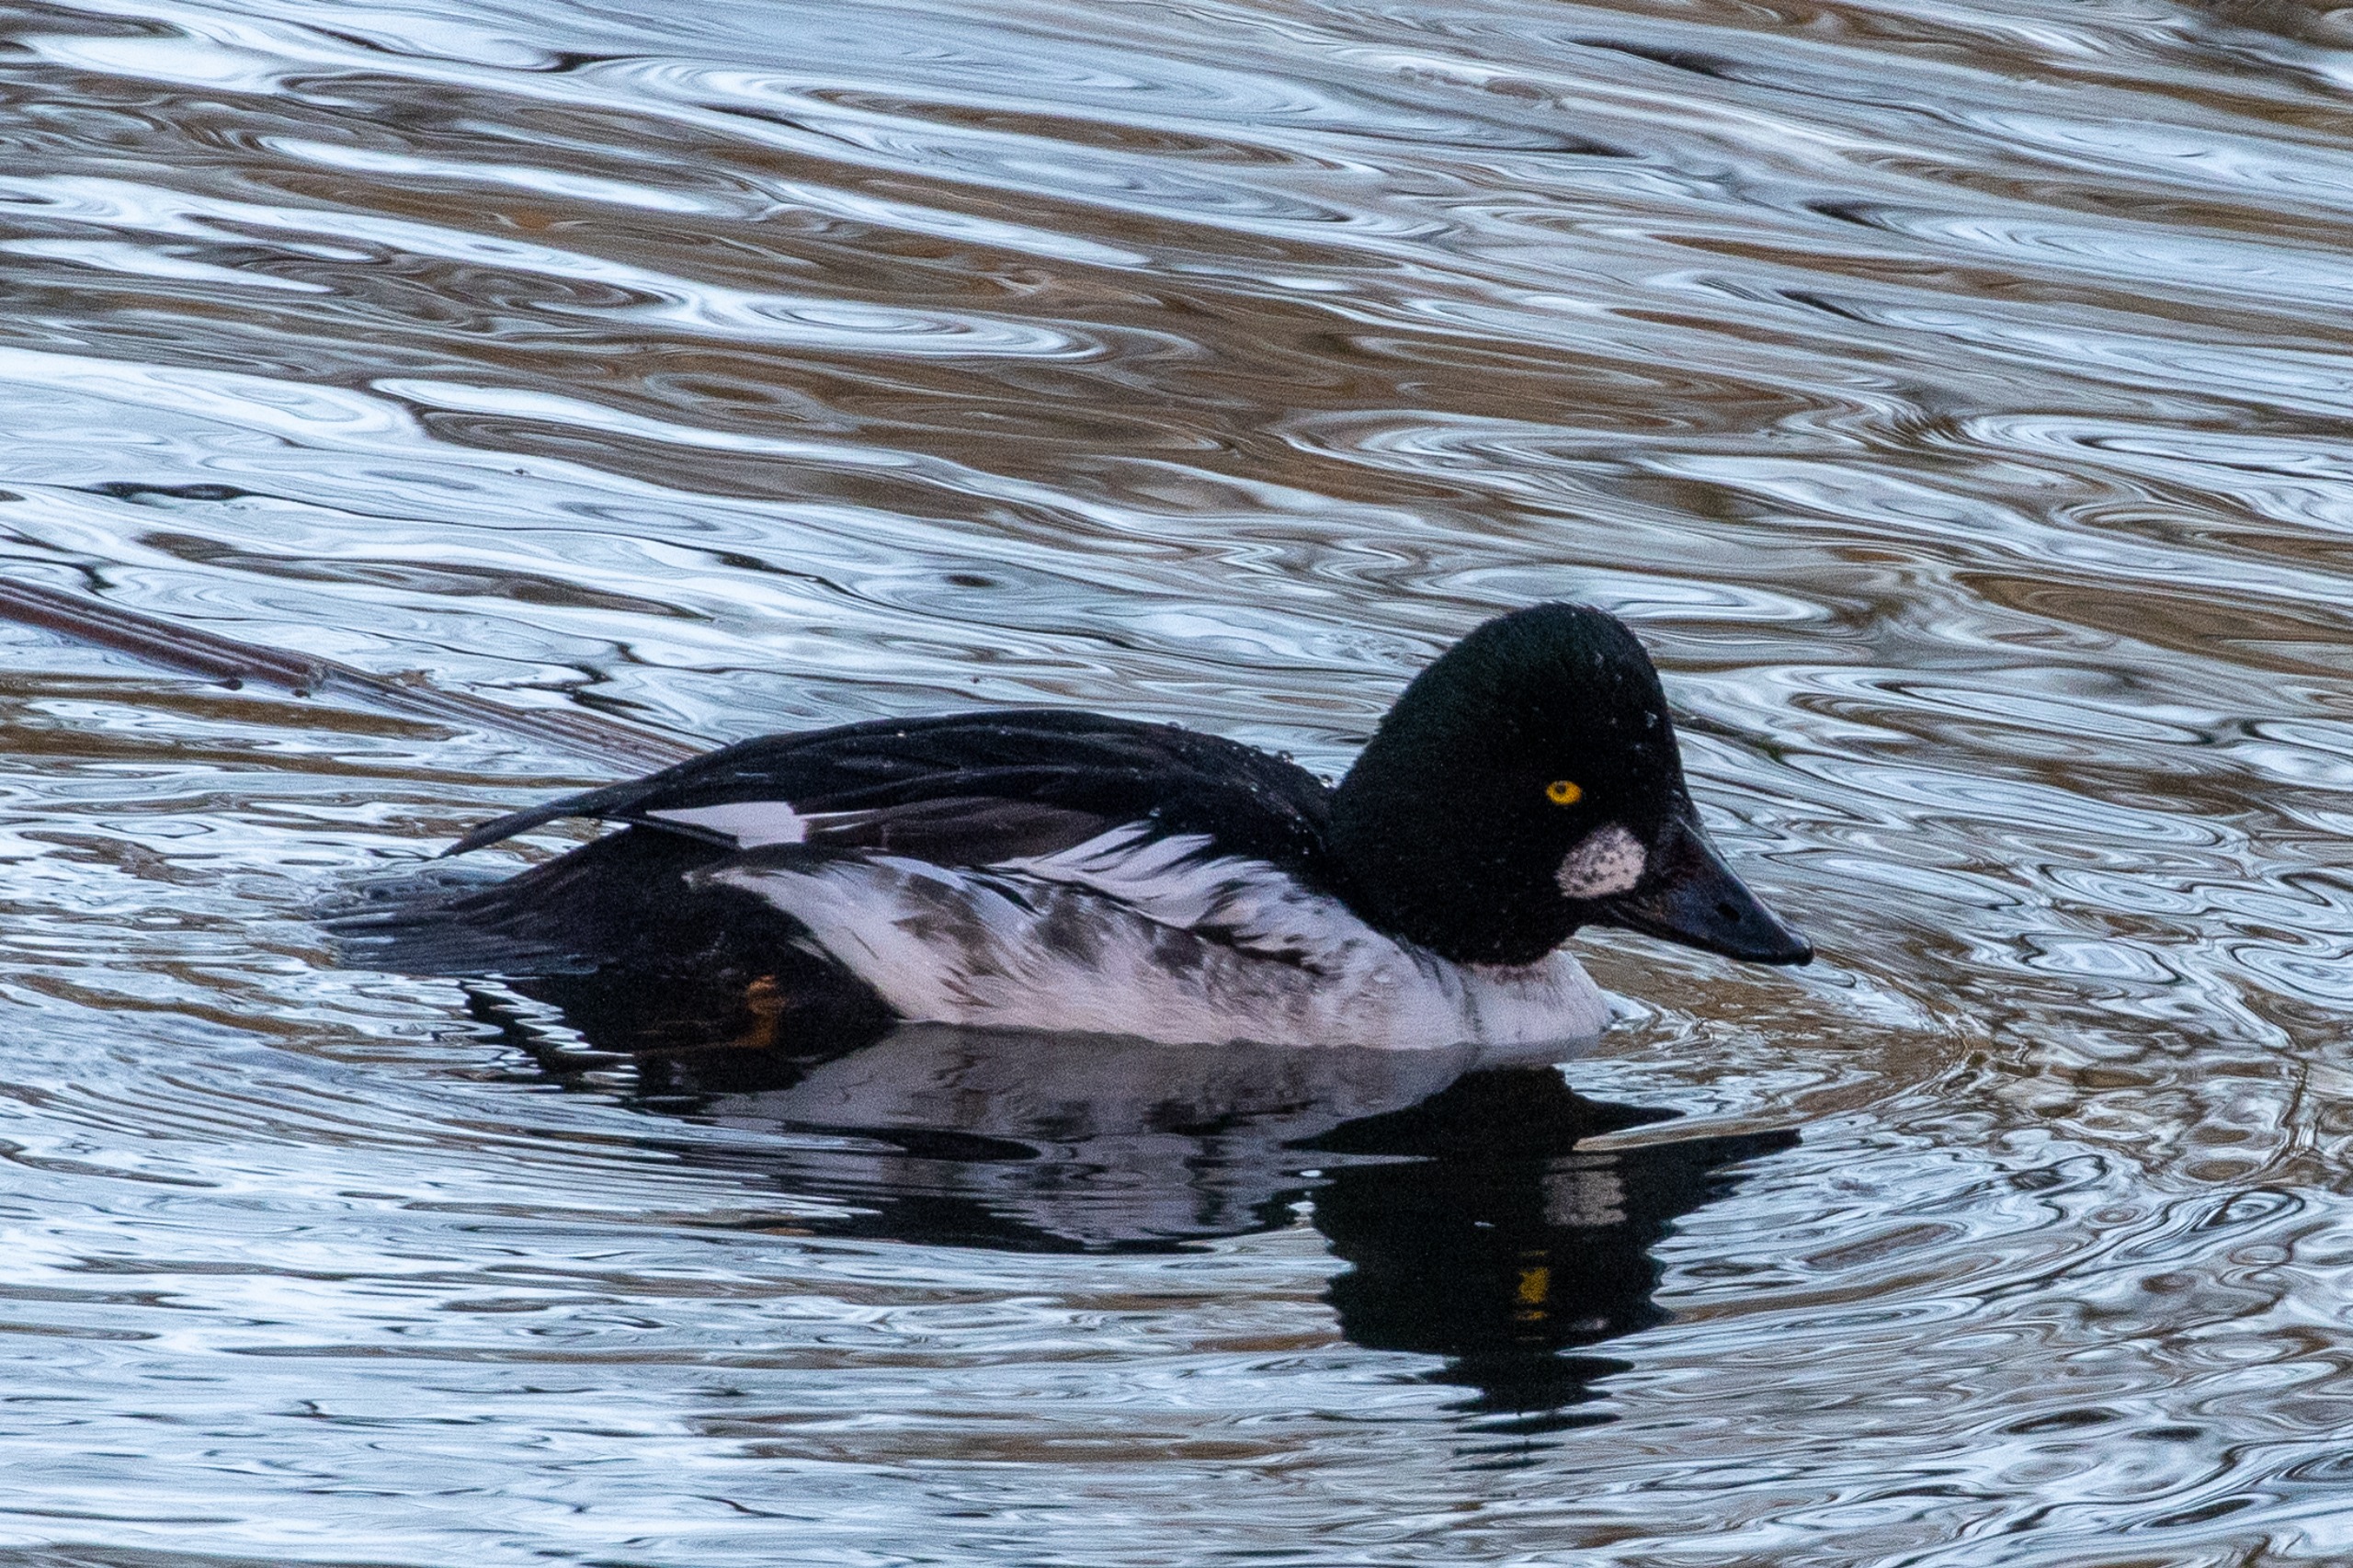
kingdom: Animalia
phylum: Chordata
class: Aves
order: Anseriformes
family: Anatidae
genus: Bucephala
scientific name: Bucephala clangula
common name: Hvinand
